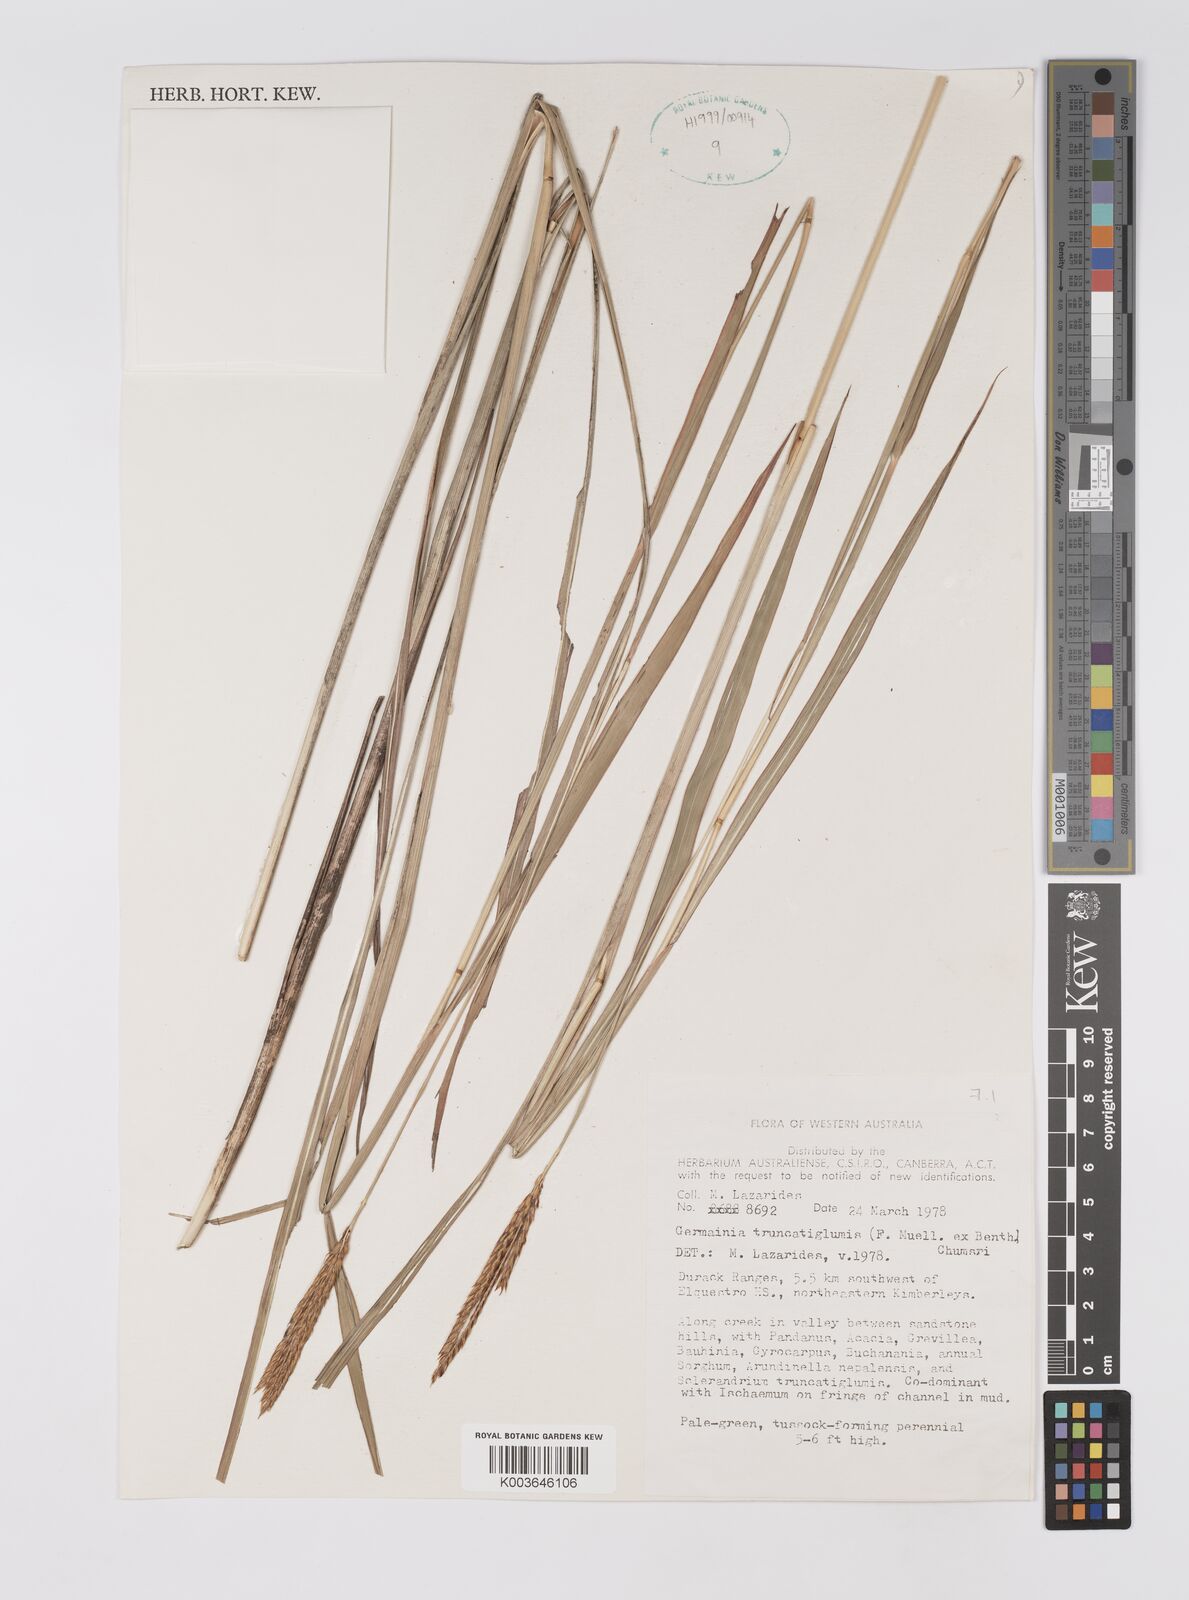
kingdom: Plantae
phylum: Tracheophyta
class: Liliopsida
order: Poales
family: Poaceae
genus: Germainia
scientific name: Germainia truncatiglumis
